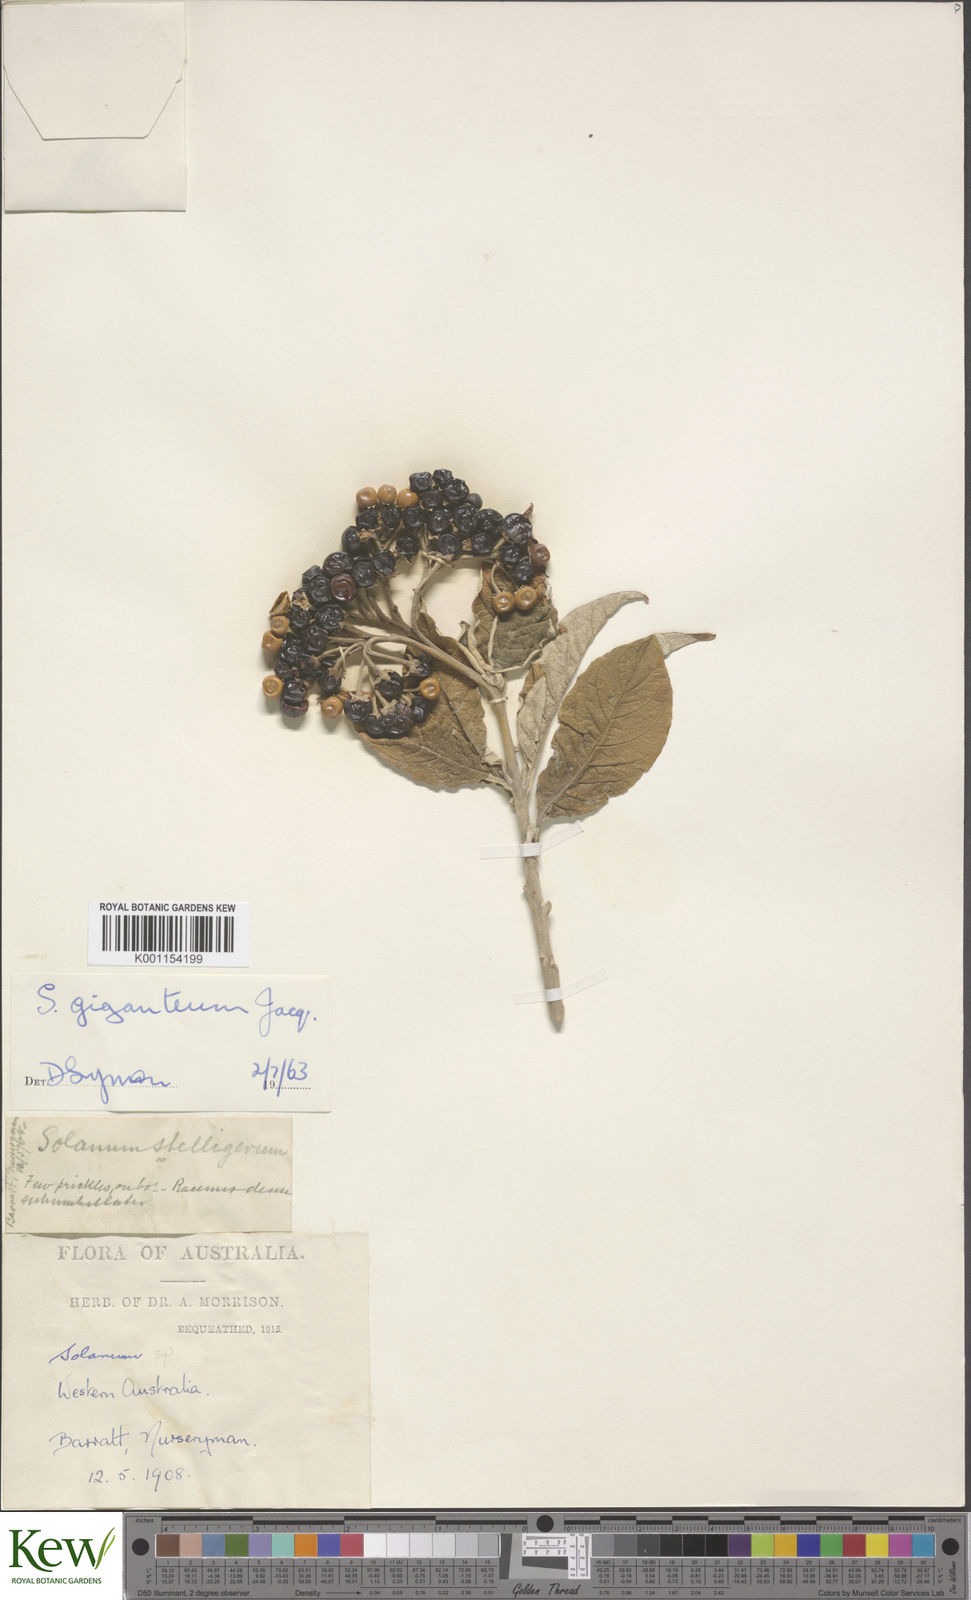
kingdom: Plantae
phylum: Tracheophyta
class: Magnoliopsida
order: Solanales
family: Solanaceae
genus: Solanum
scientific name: Solanum giganteum
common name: Healing-leaf-tree
